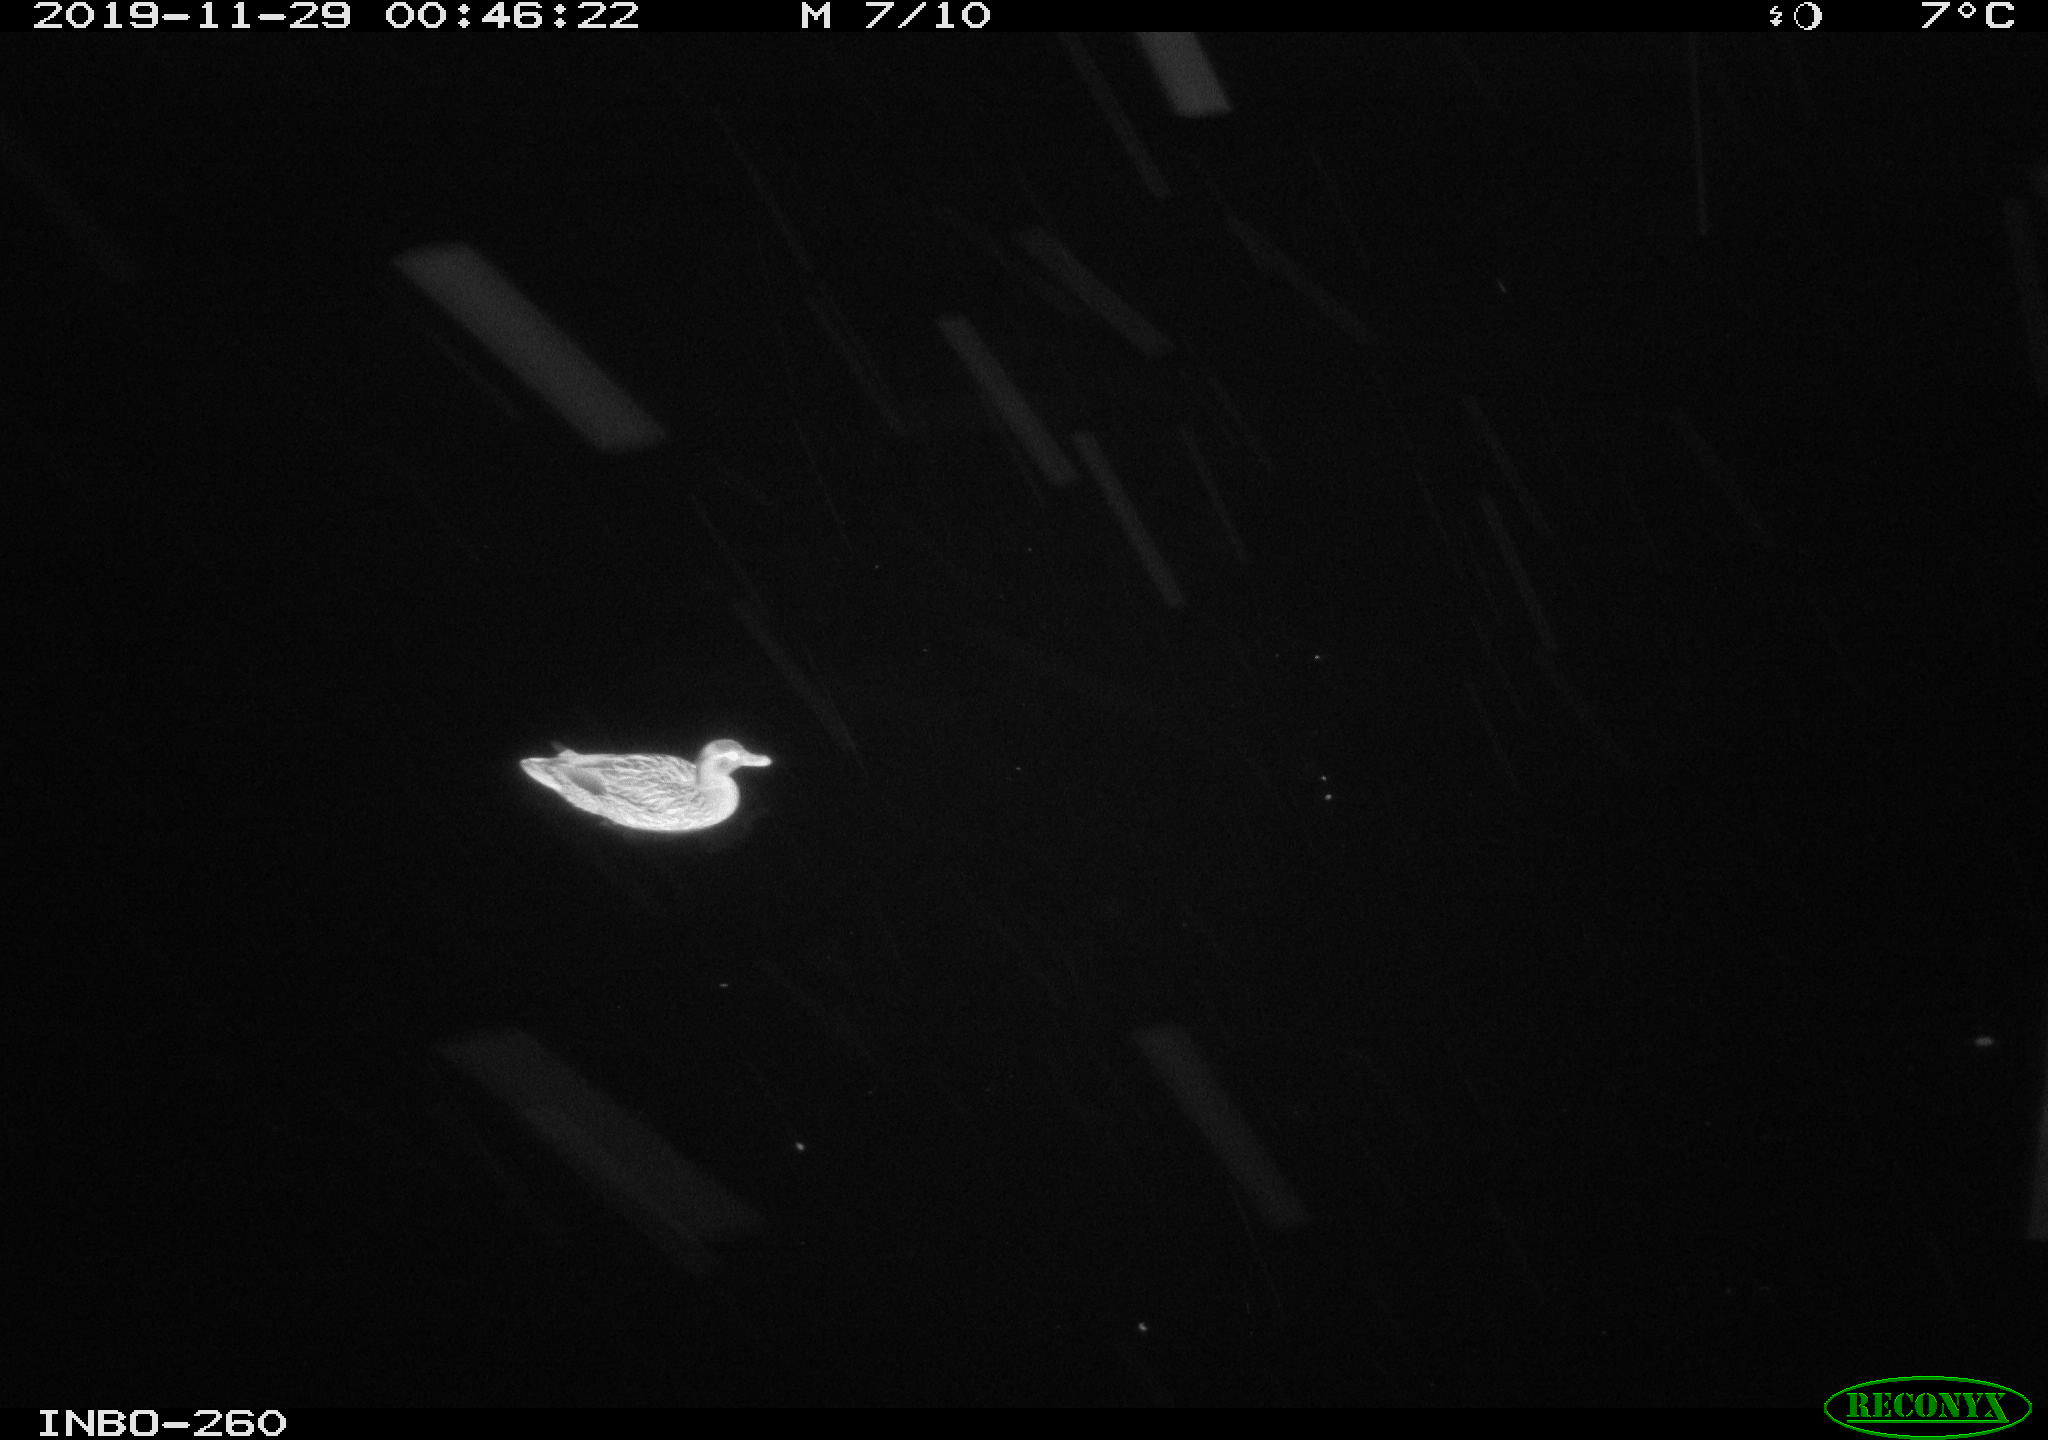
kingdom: Animalia
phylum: Chordata
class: Aves
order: Anseriformes
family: Anatidae
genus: Anas
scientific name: Anas platyrhynchos
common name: Mallard
